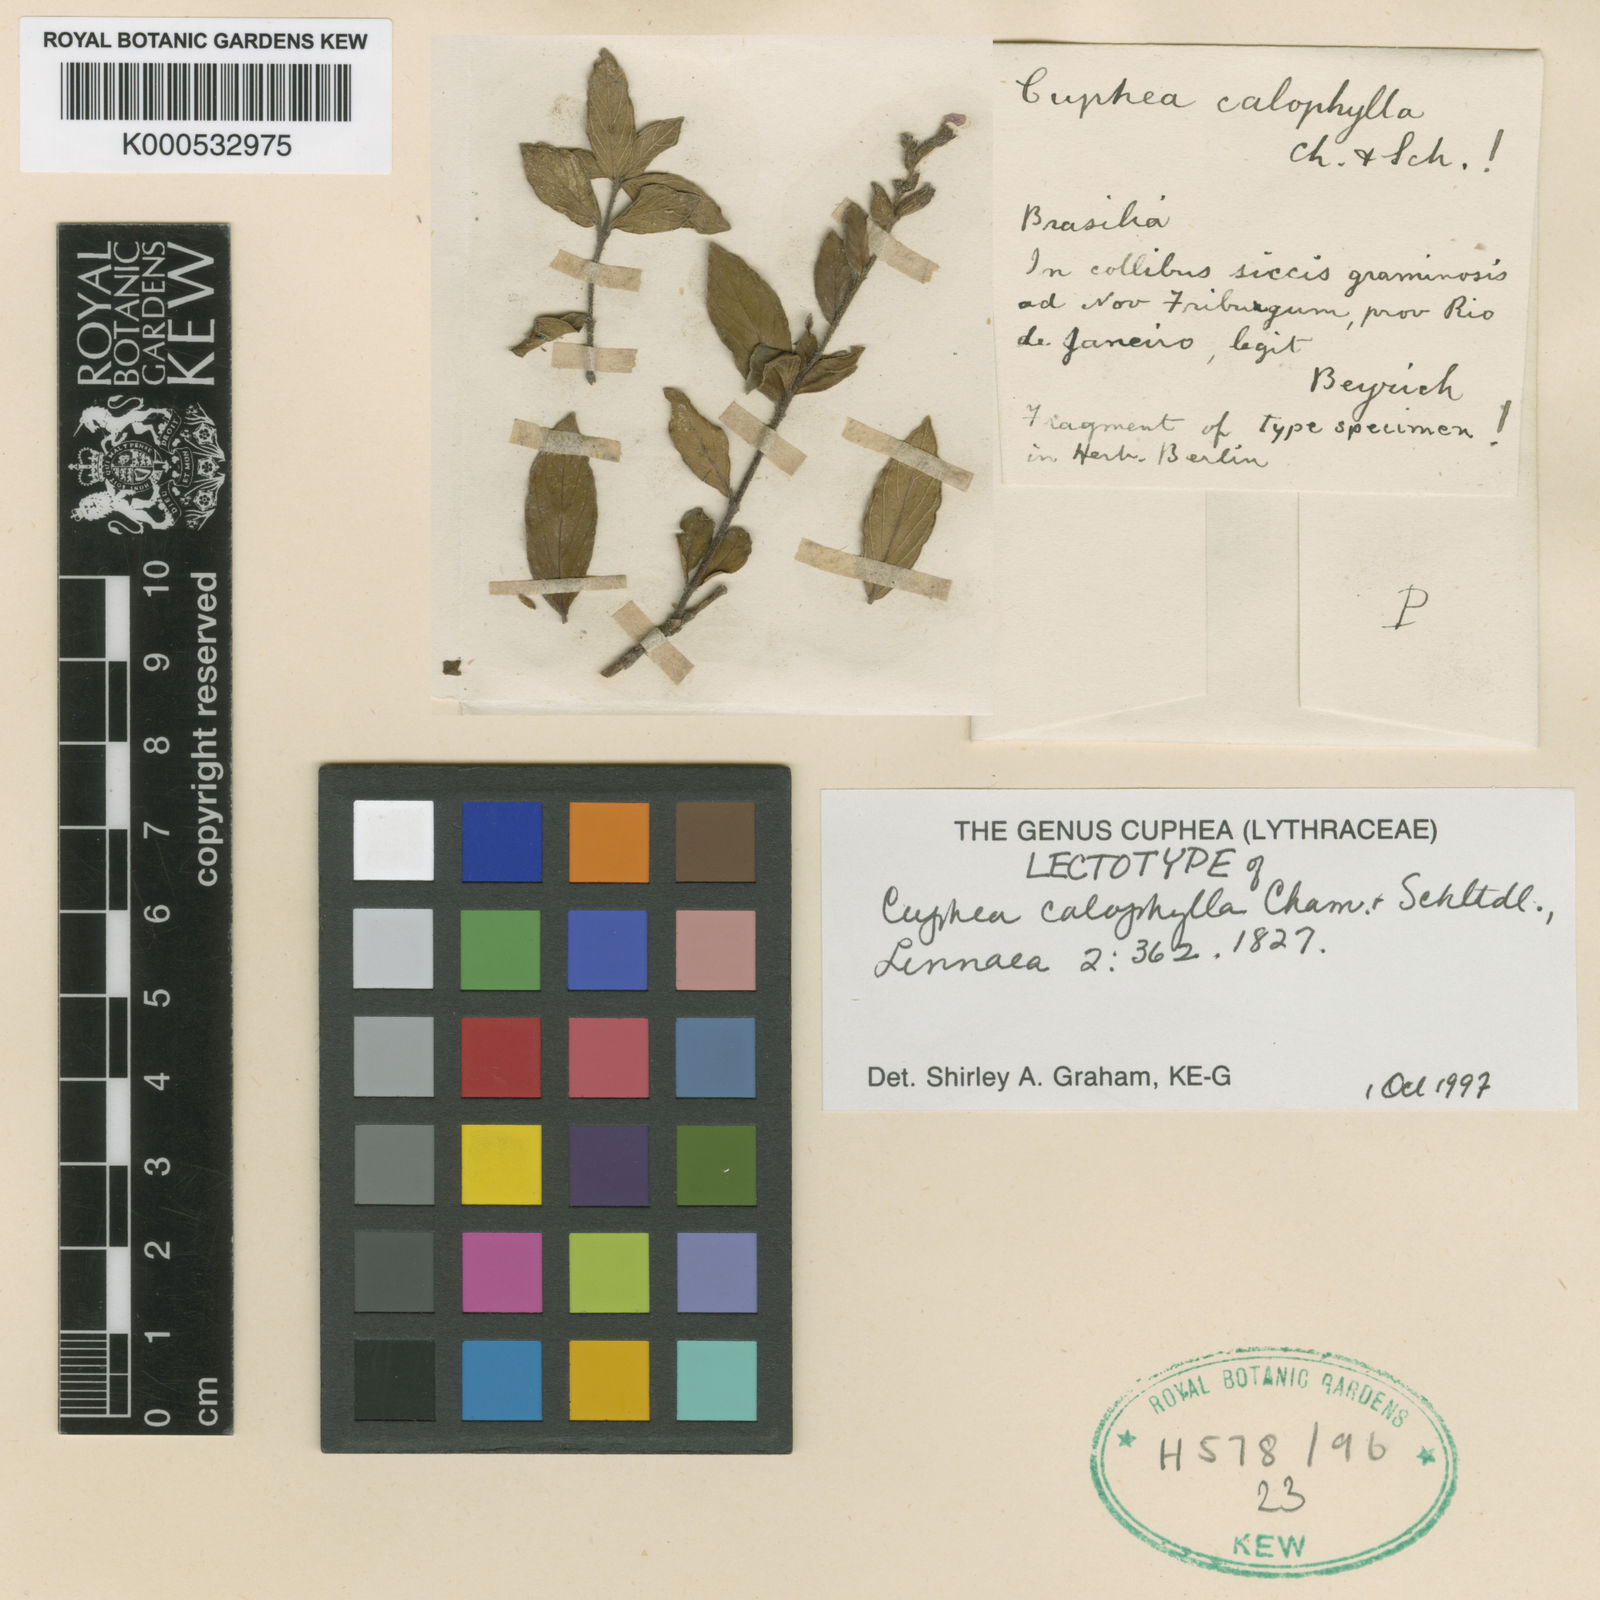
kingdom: Plantae
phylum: Tracheophyta
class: Magnoliopsida
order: Myrtales
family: Lythraceae
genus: Cuphea
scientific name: Cuphea calophylla
